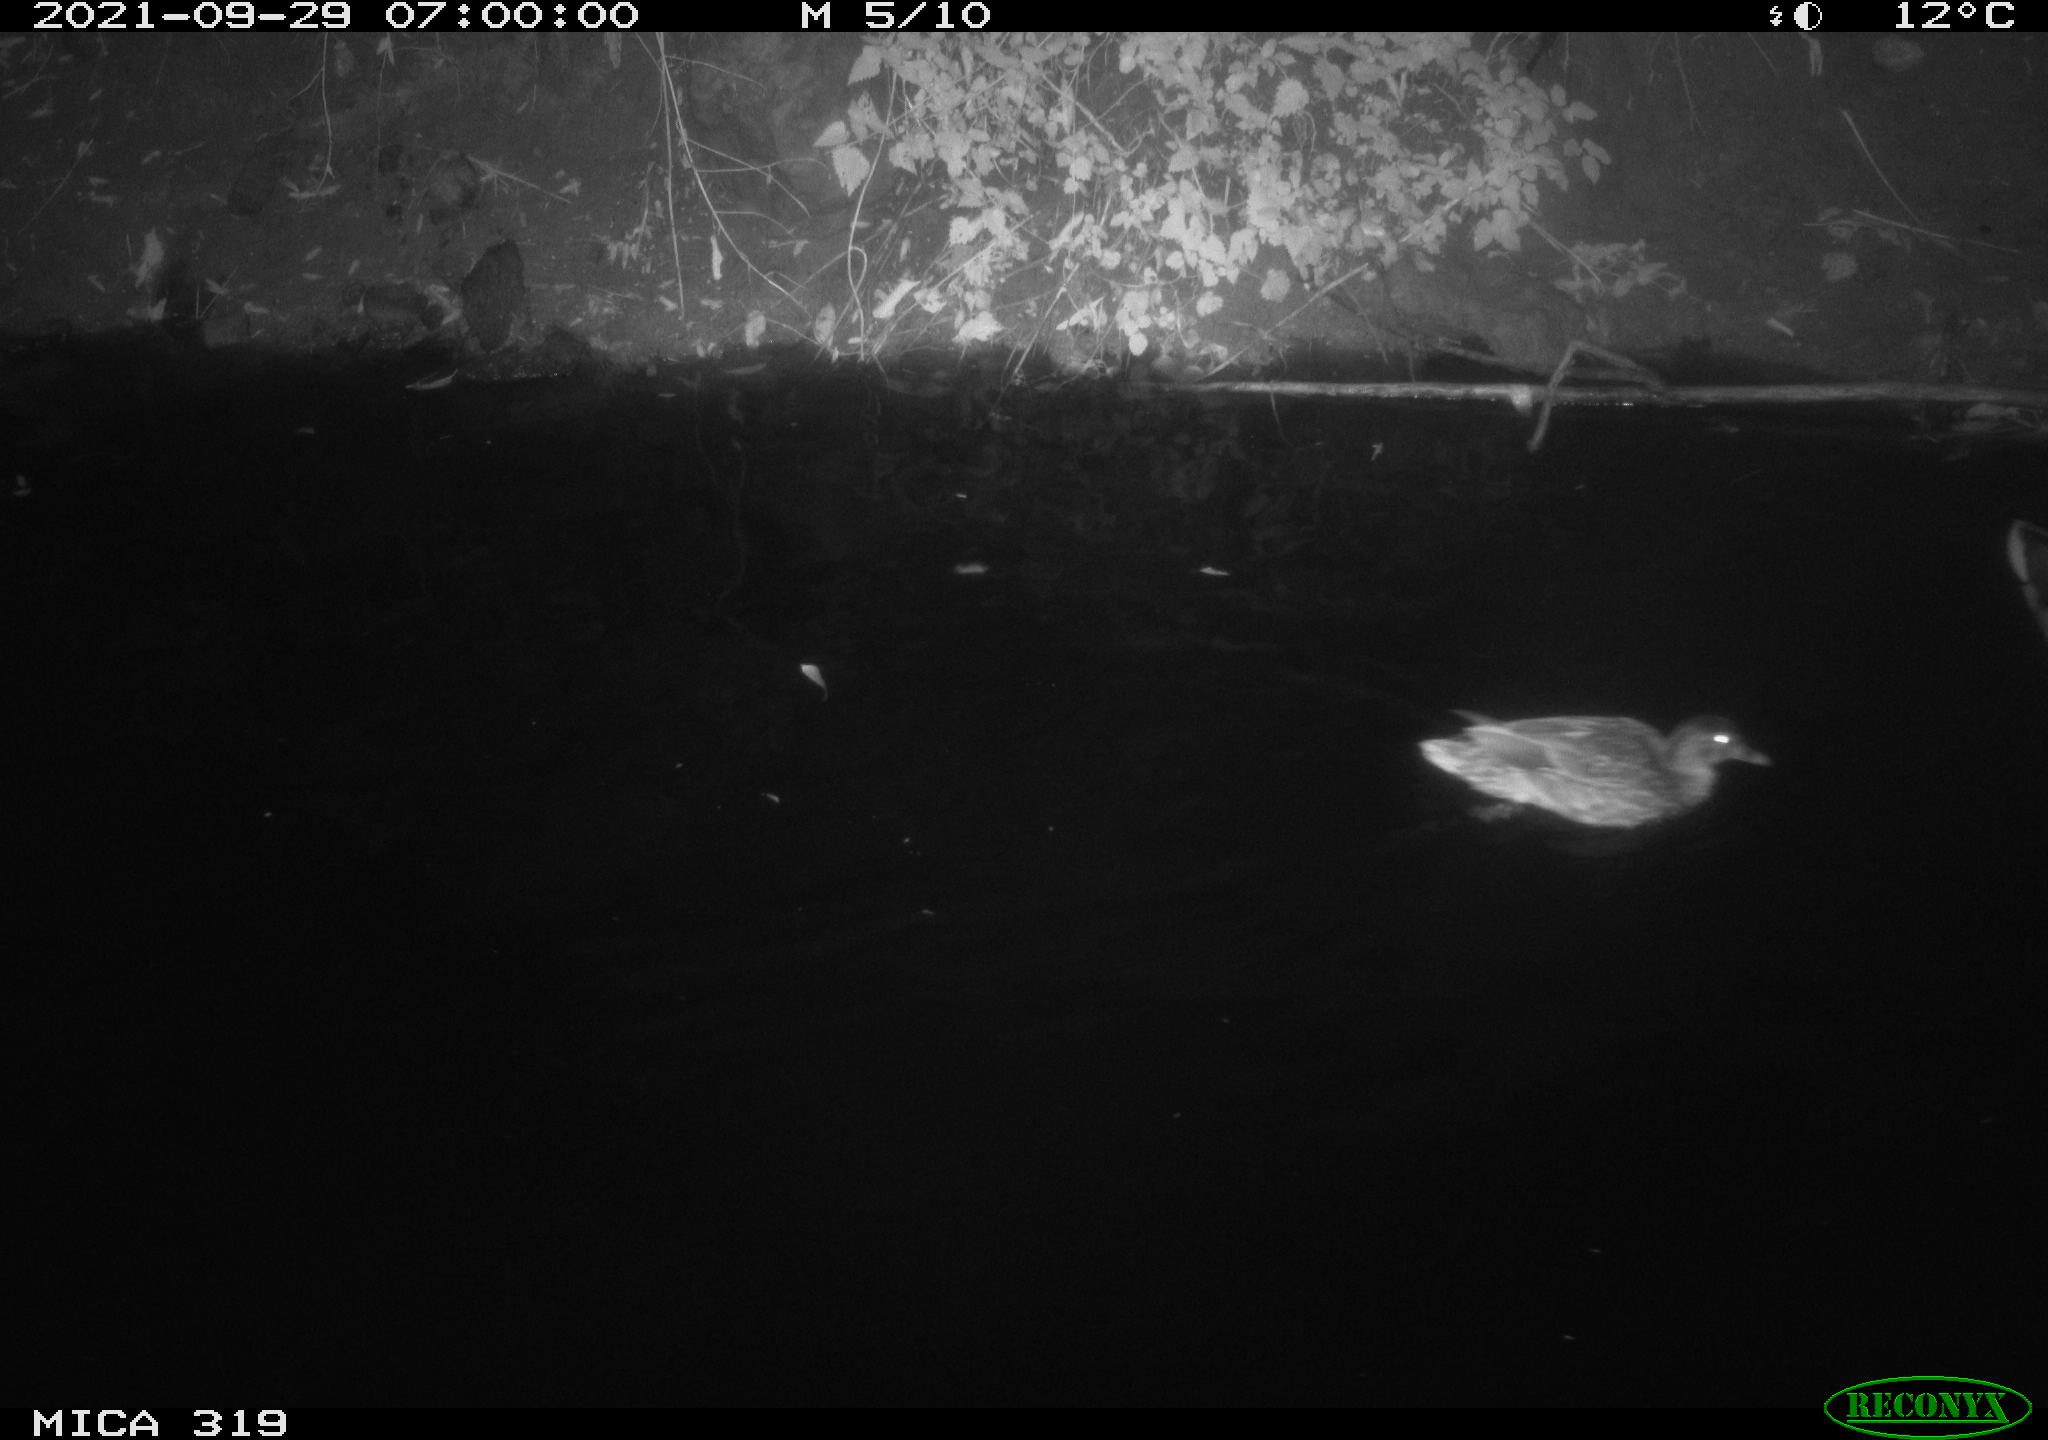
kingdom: Animalia
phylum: Chordata
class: Aves
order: Anseriformes
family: Anatidae
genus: Anas
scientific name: Anas platyrhynchos
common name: Mallard
